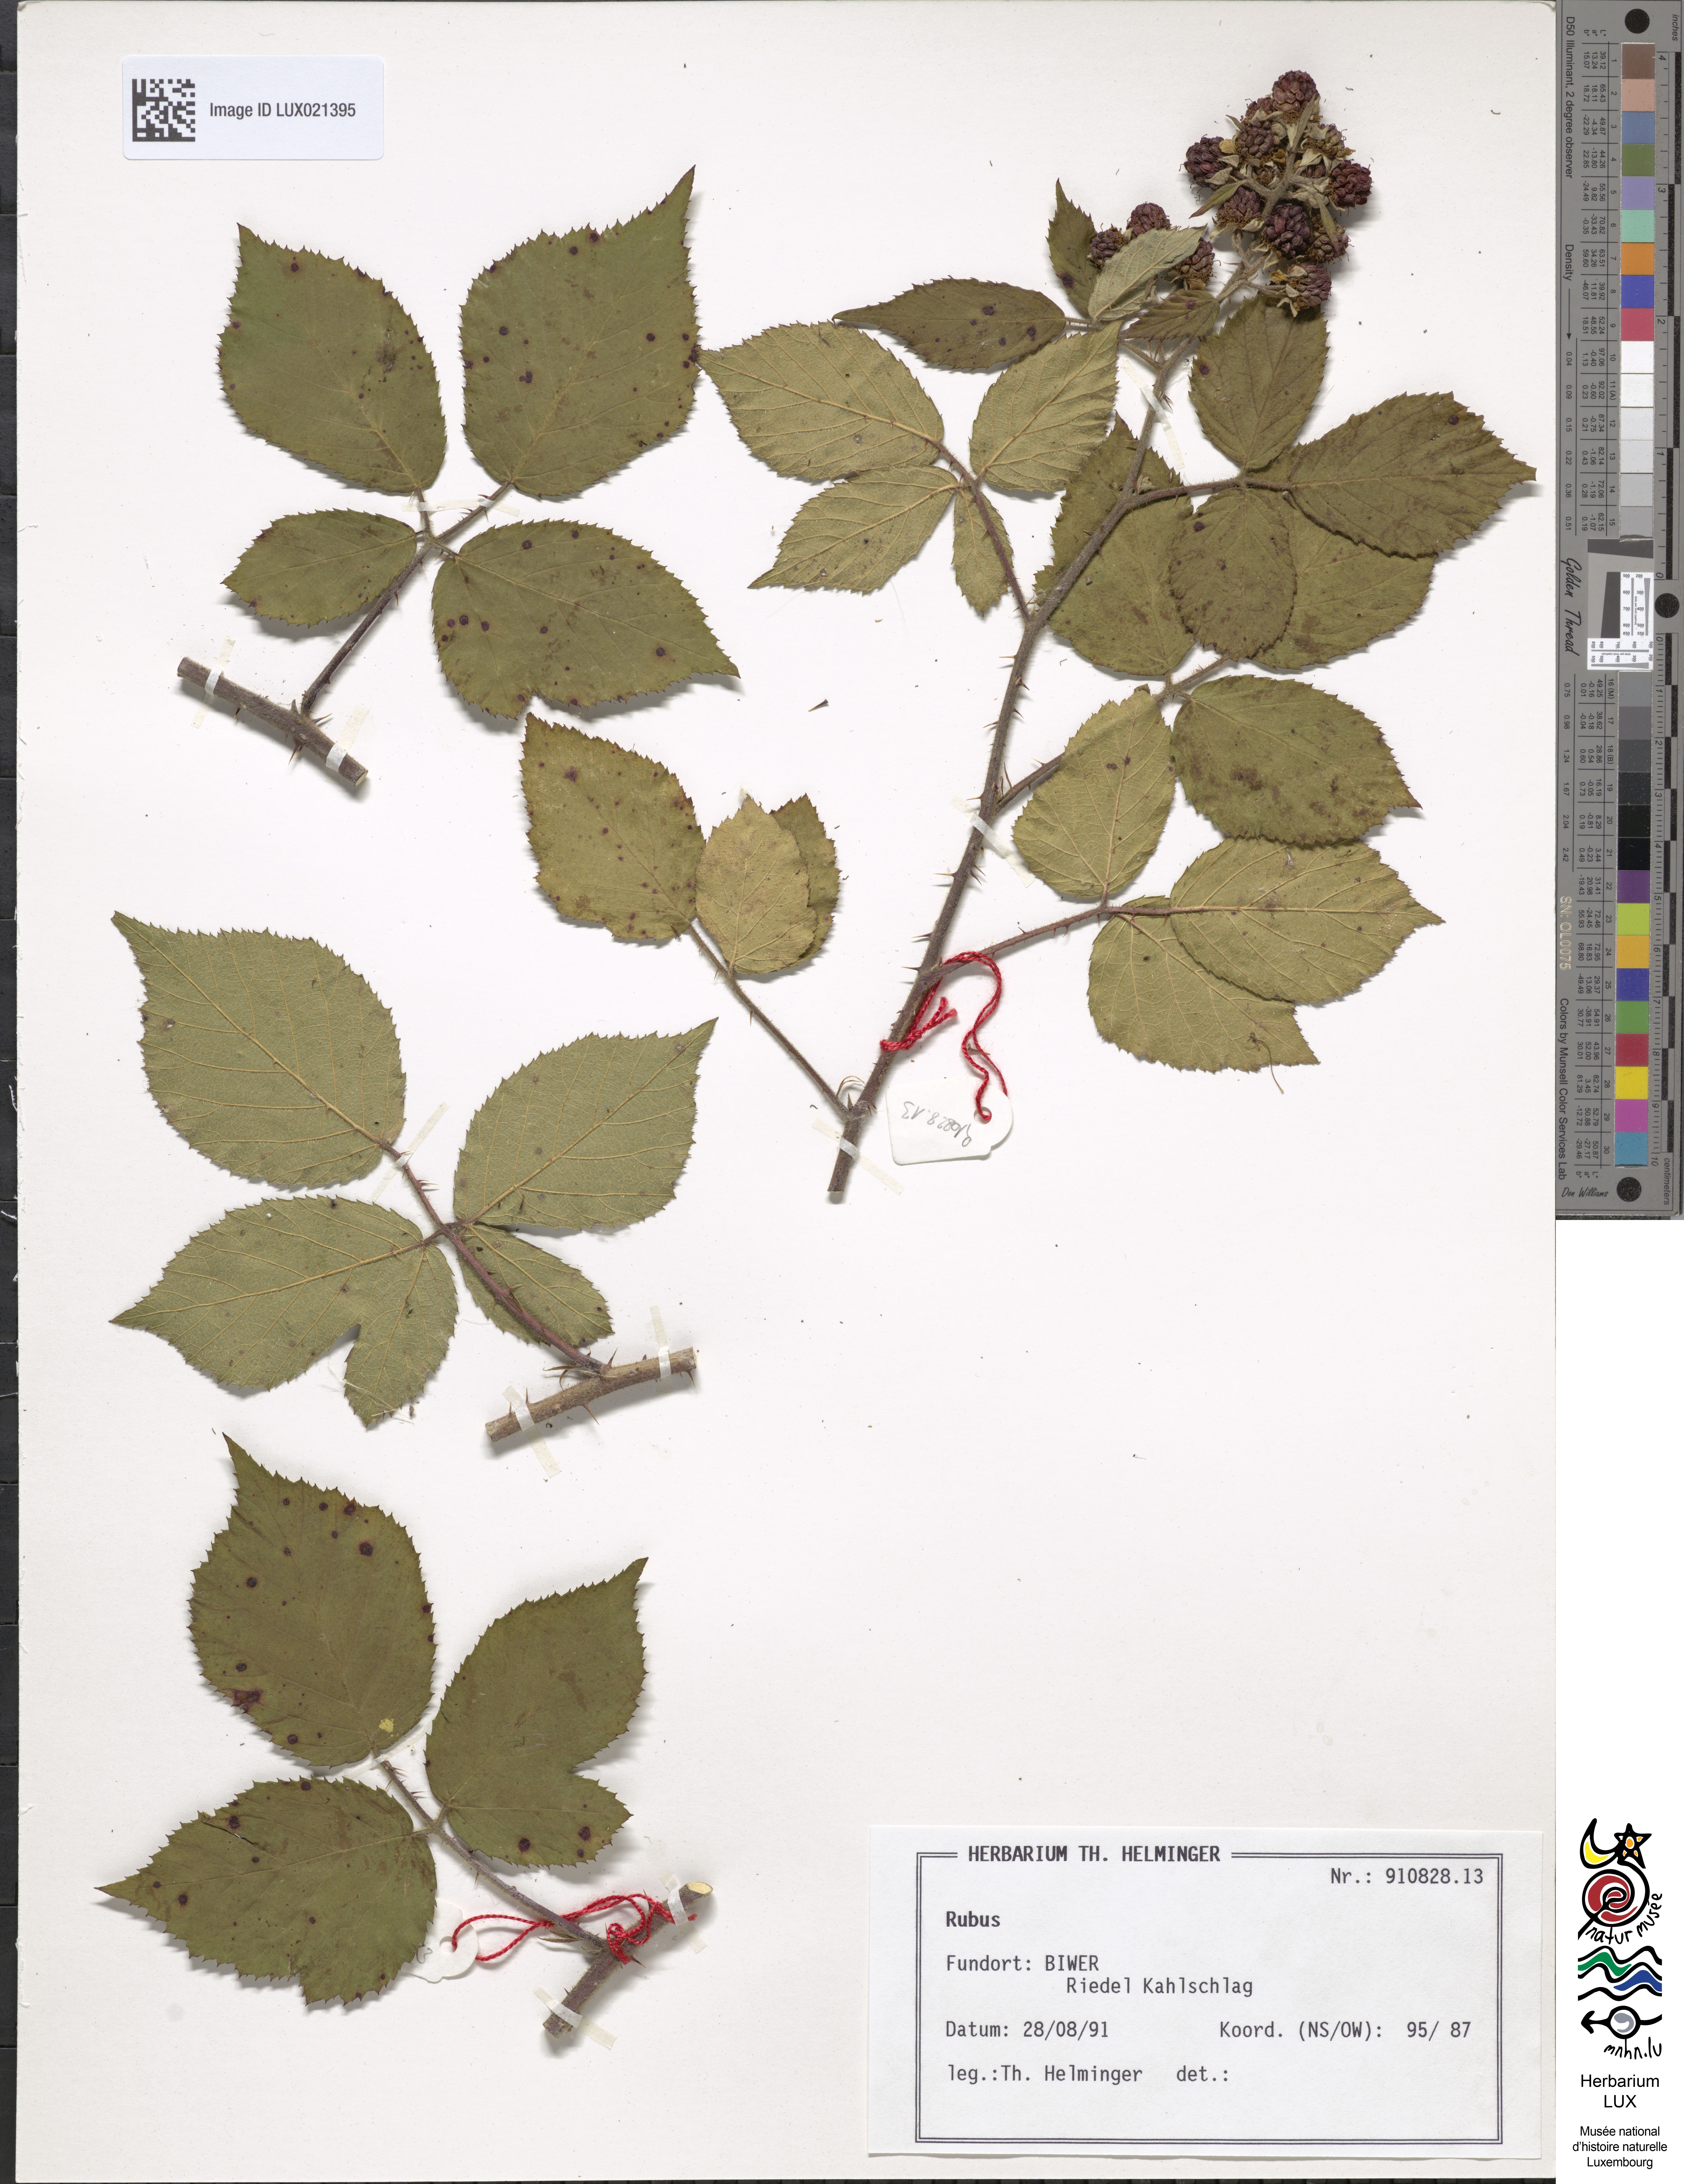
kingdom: Plantae
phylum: Tracheophyta
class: Magnoliopsida
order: Rosales
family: Rosaceae
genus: Rubus
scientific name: Rubus
